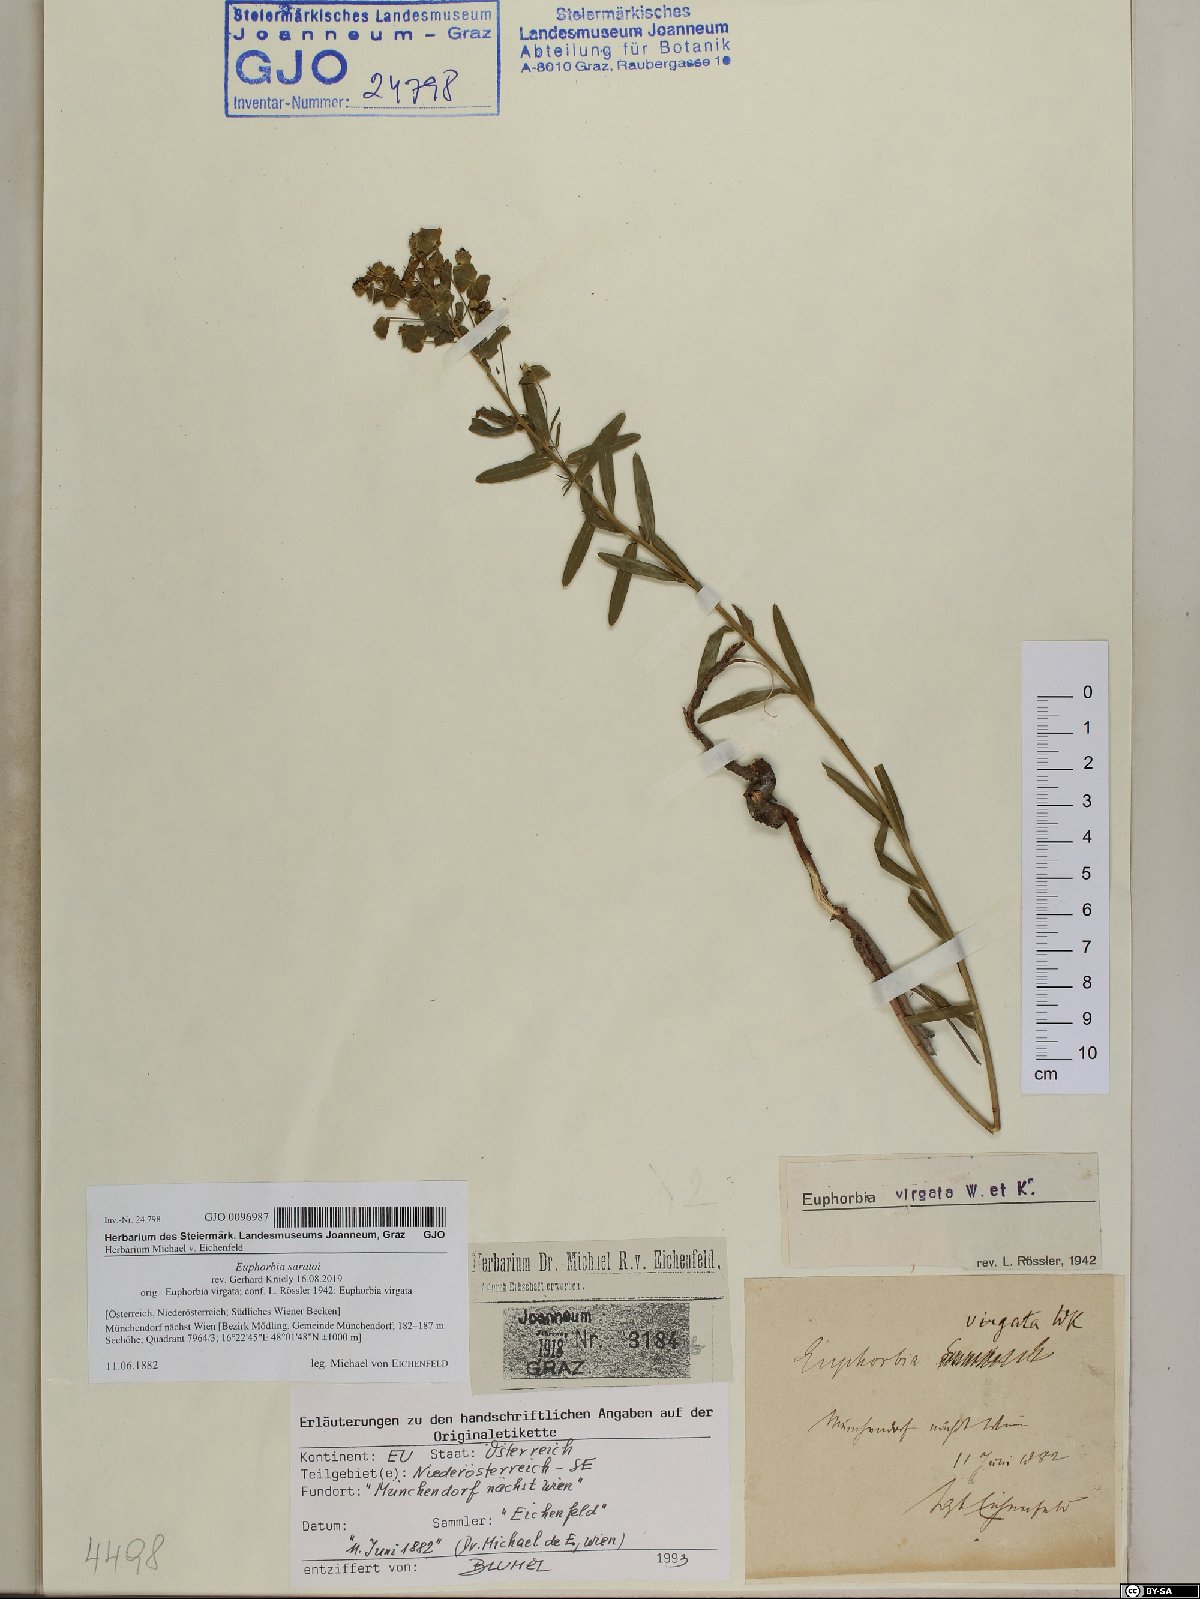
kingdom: Plantae
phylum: Tracheophyta
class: Magnoliopsida
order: Malpighiales
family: Euphorbiaceae
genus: Euphorbia
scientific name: Euphorbia saratoi
